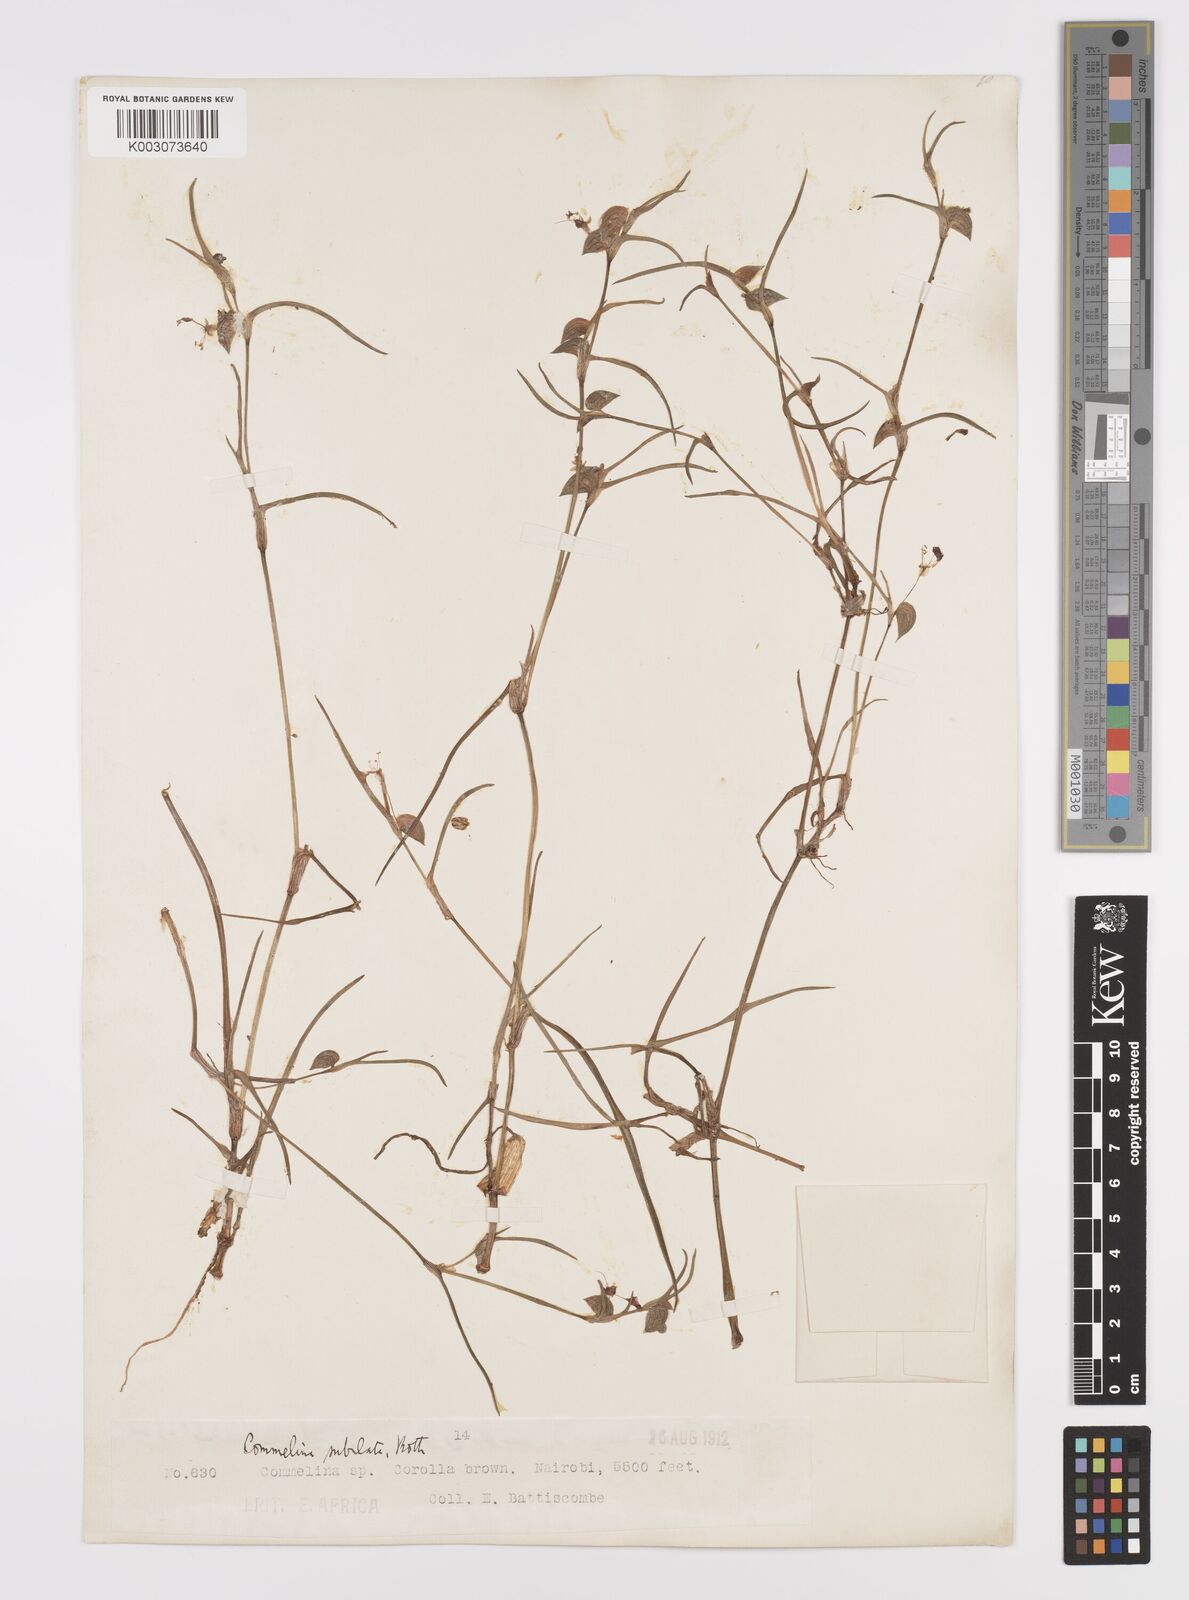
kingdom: Plantae
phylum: Tracheophyta
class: Liliopsida
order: Commelinales
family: Commelinaceae
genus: Commelina
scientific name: Commelina purpurea
